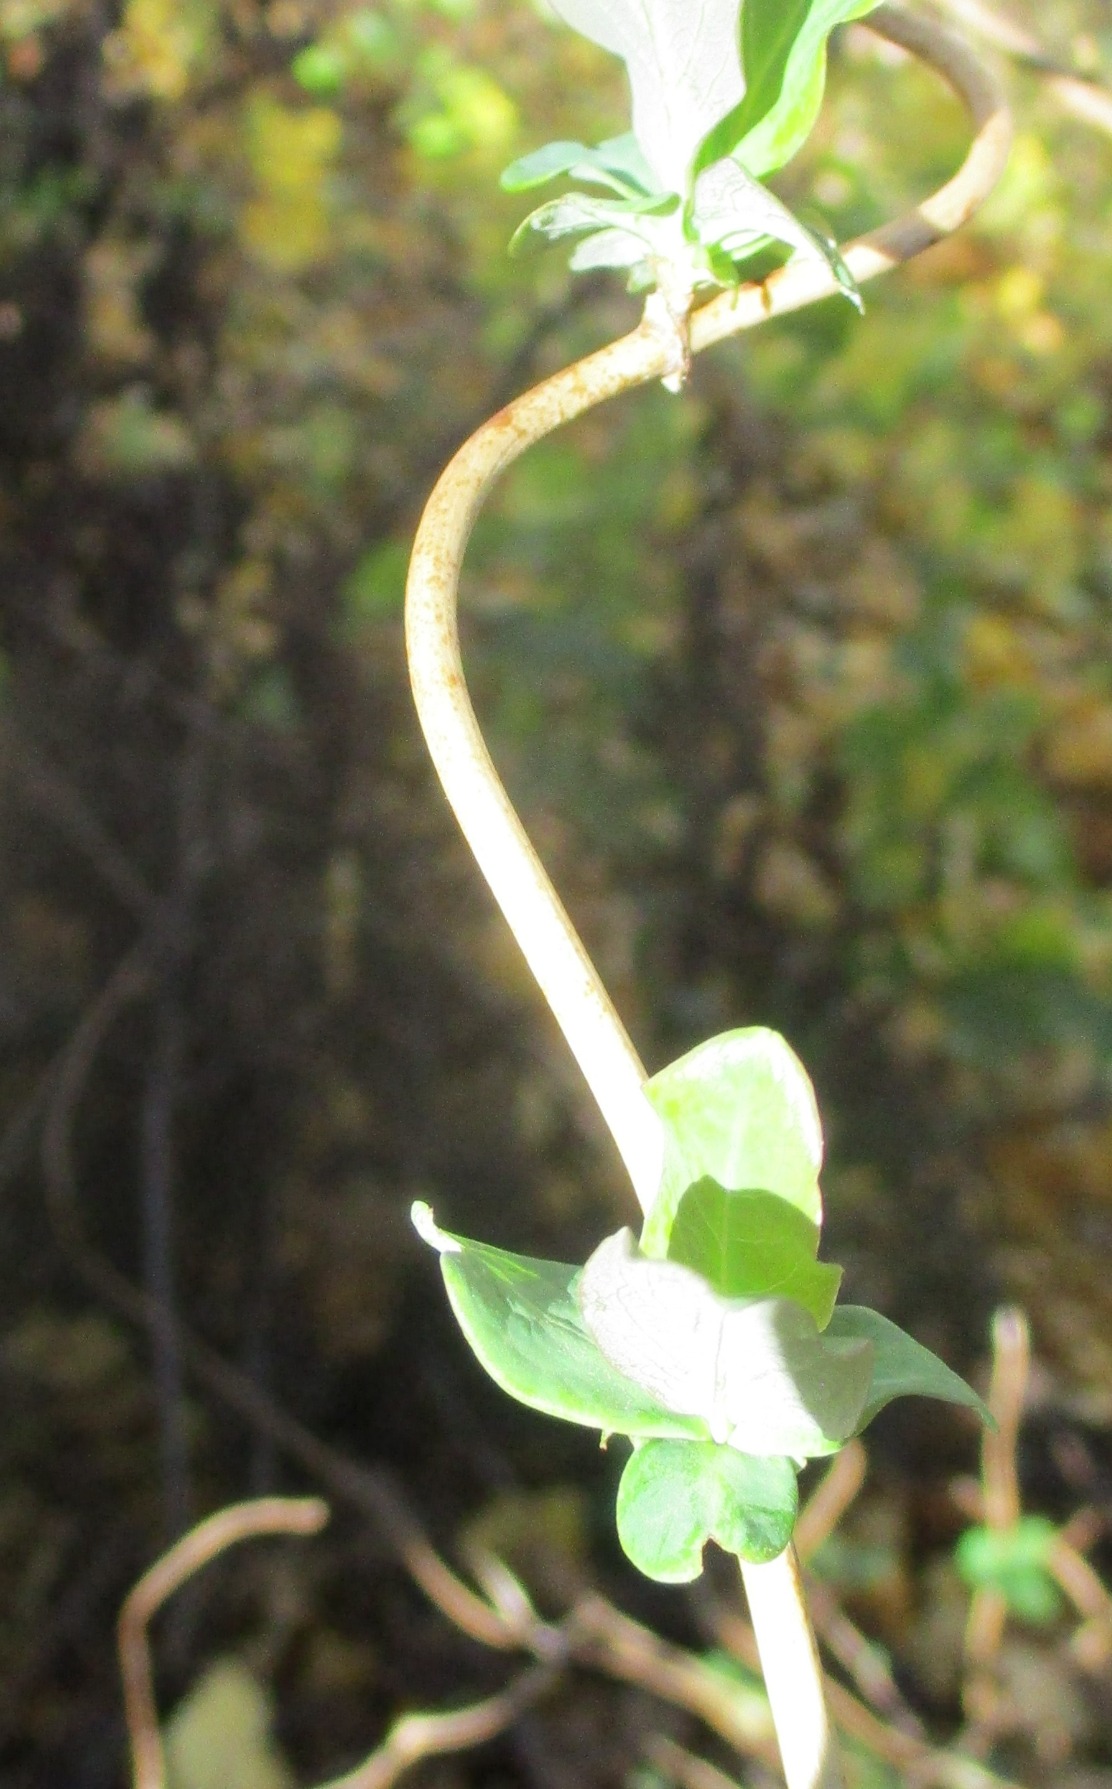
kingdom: Plantae
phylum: Tracheophyta
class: Magnoliopsida
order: Dipsacales
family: Caprifoliaceae
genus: Lonicera
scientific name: Lonicera periclymenum
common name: Almindelig gedeblad
